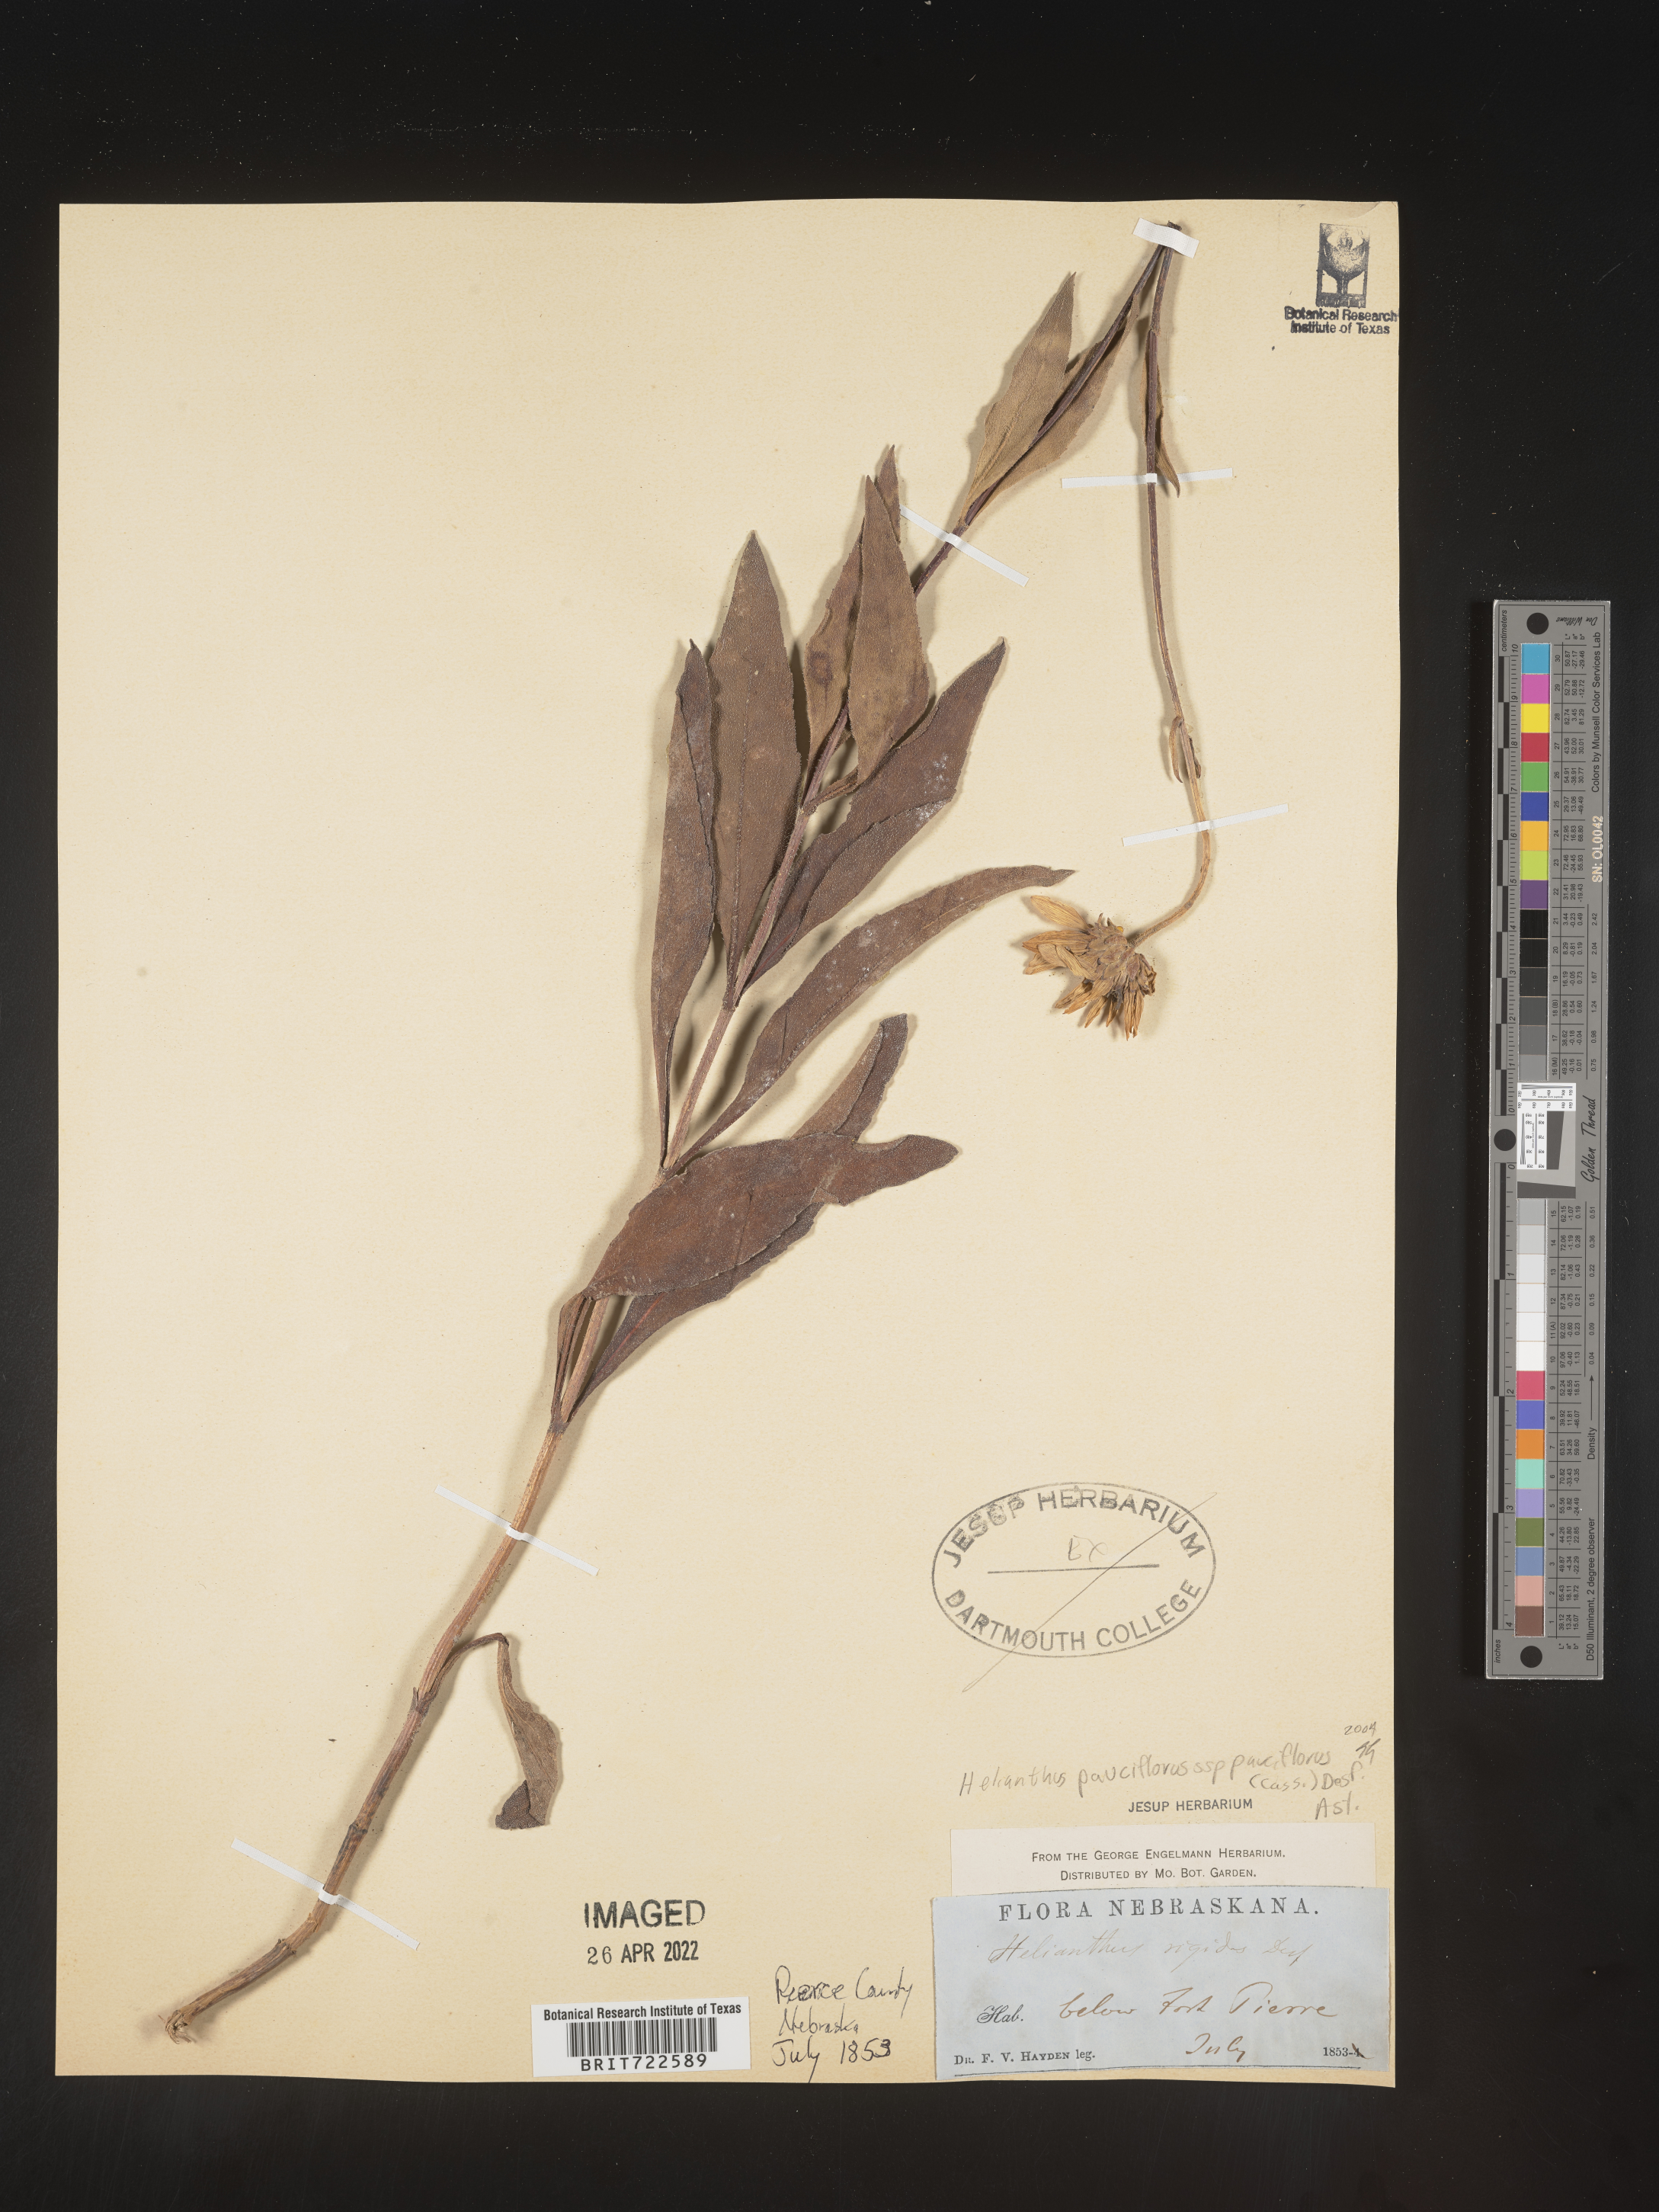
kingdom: Plantae
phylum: Tracheophyta
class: Magnoliopsida
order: Asterales
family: Asteraceae
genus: Helianthus
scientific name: Helianthus pauciflorus
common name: Stiff sunflower
